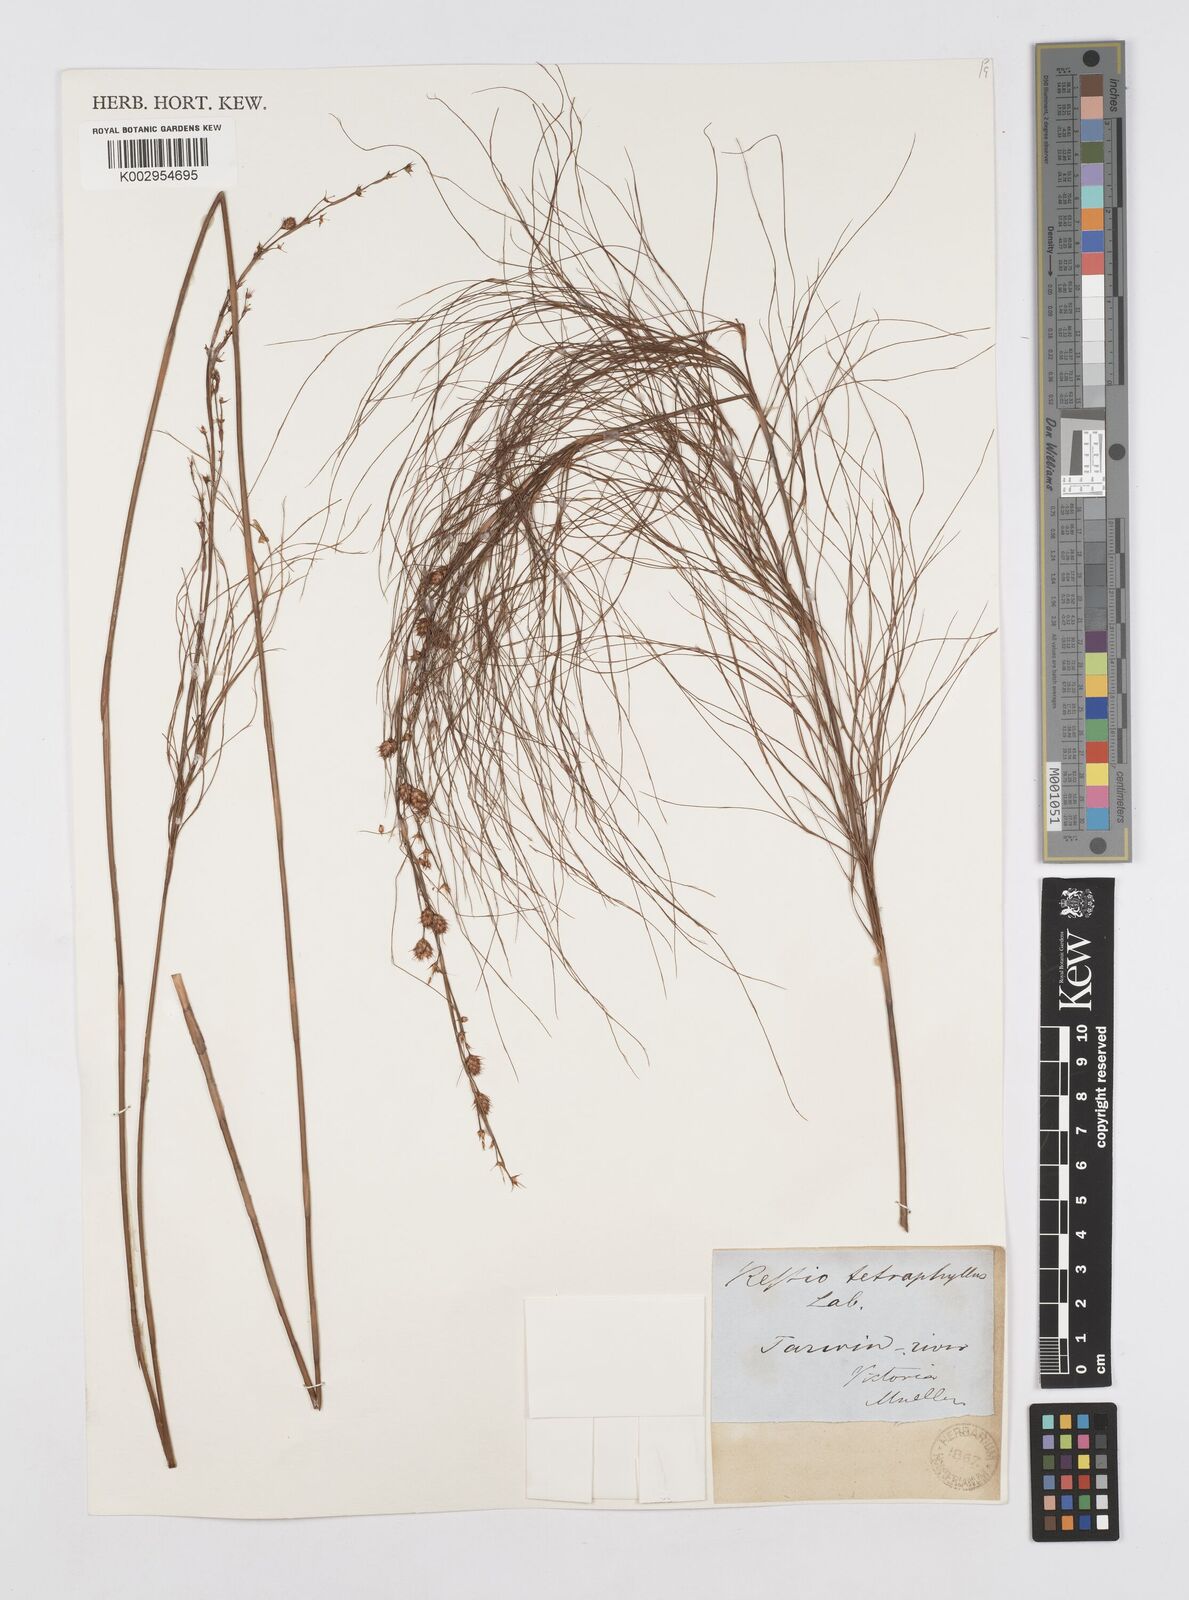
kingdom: Plantae
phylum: Tracheophyta
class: Liliopsida
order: Poales
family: Restionaceae
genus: Baloskion
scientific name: Baloskion tetraphyllum
